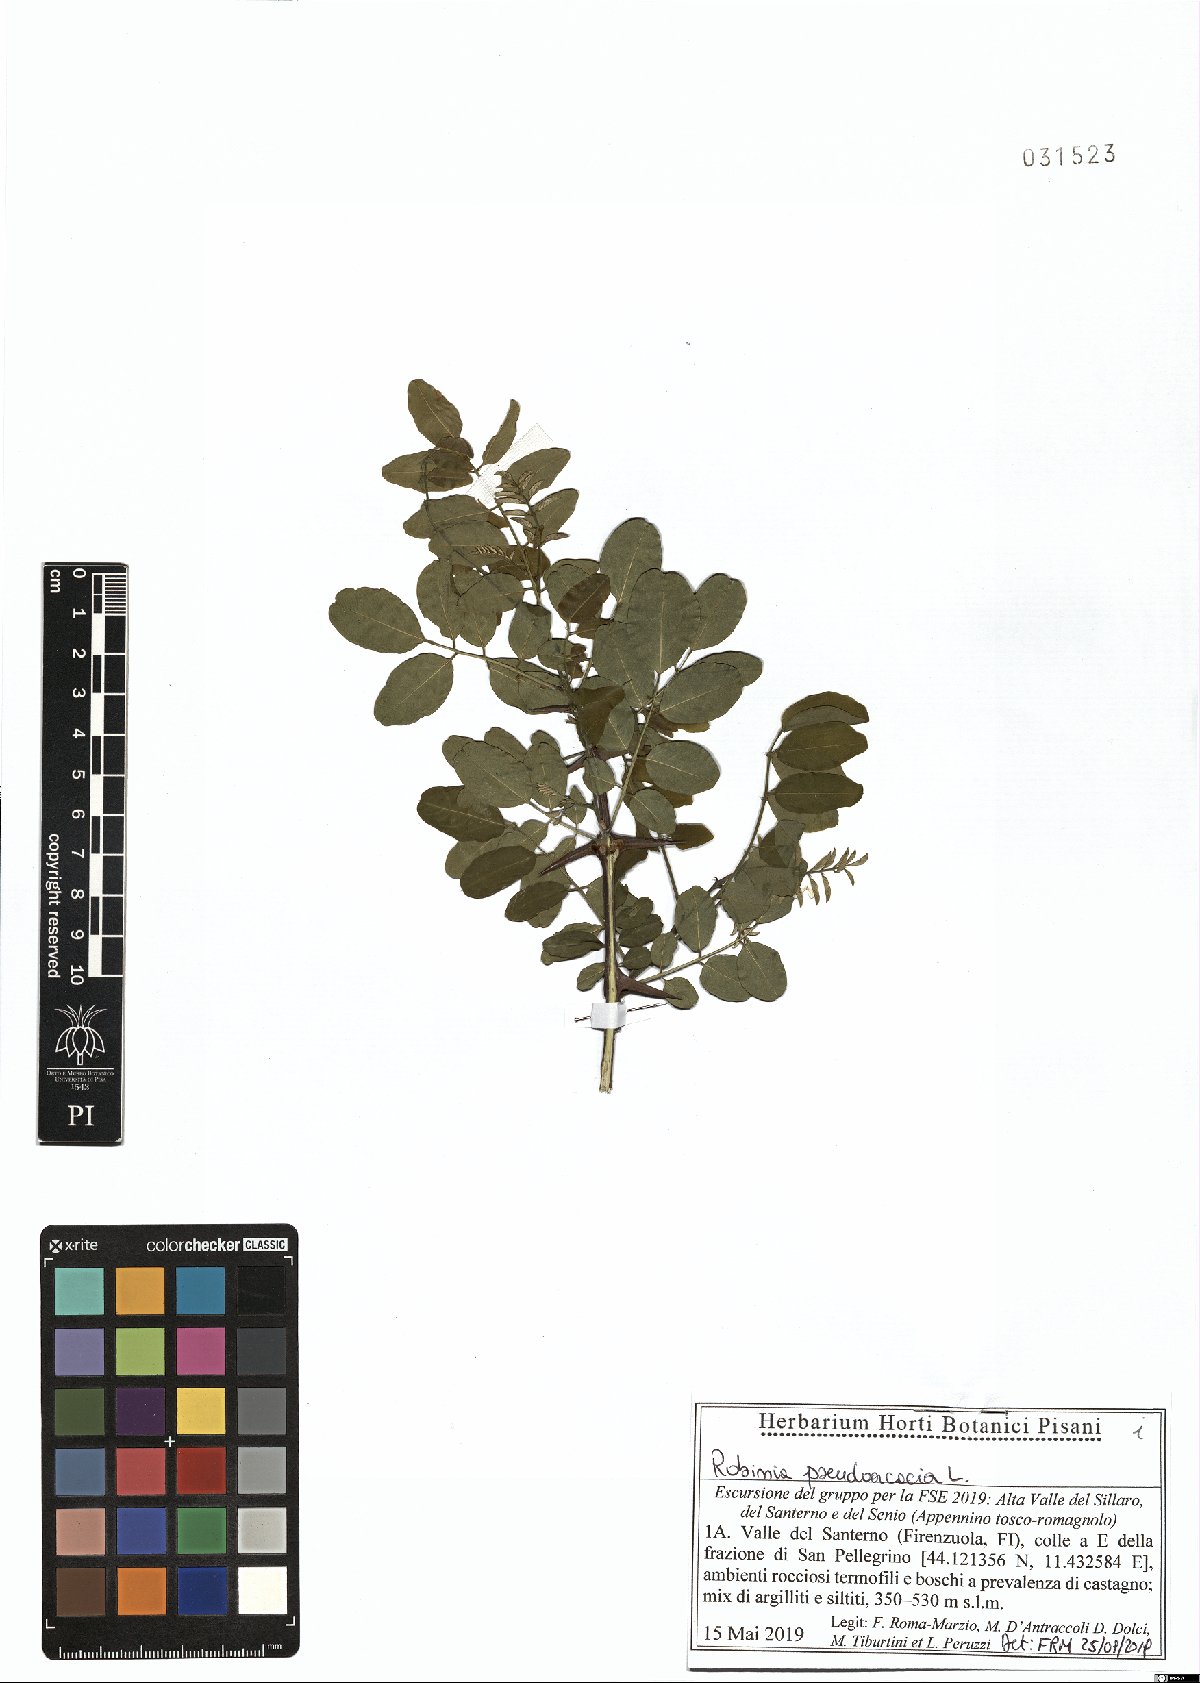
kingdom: Plantae
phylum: Tracheophyta
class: Magnoliopsida
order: Fabales
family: Fabaceae
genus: Robinia
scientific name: Robinia pseudoacacia
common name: Black locust
